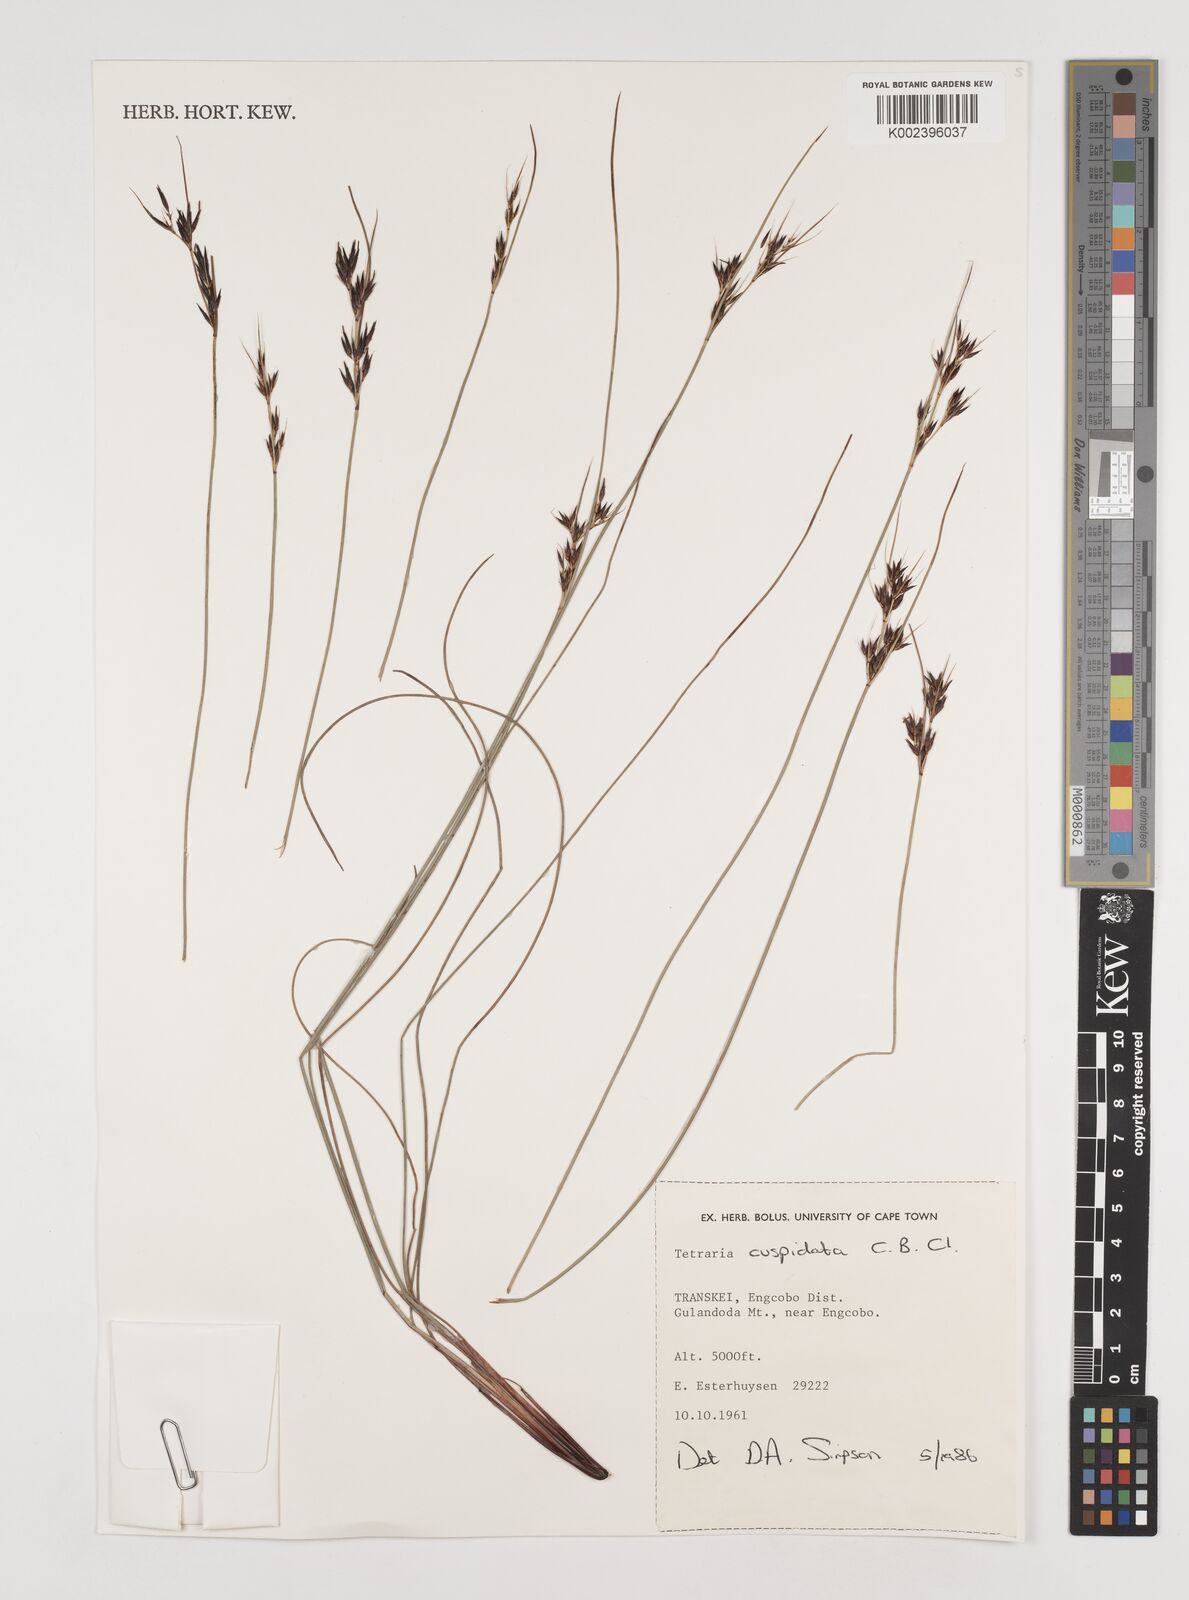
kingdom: Plantae
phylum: Tracheophyta
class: Liliopsida
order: Poales
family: Cyperaceae
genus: Schoenus
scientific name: Schoenus cuspidatus
